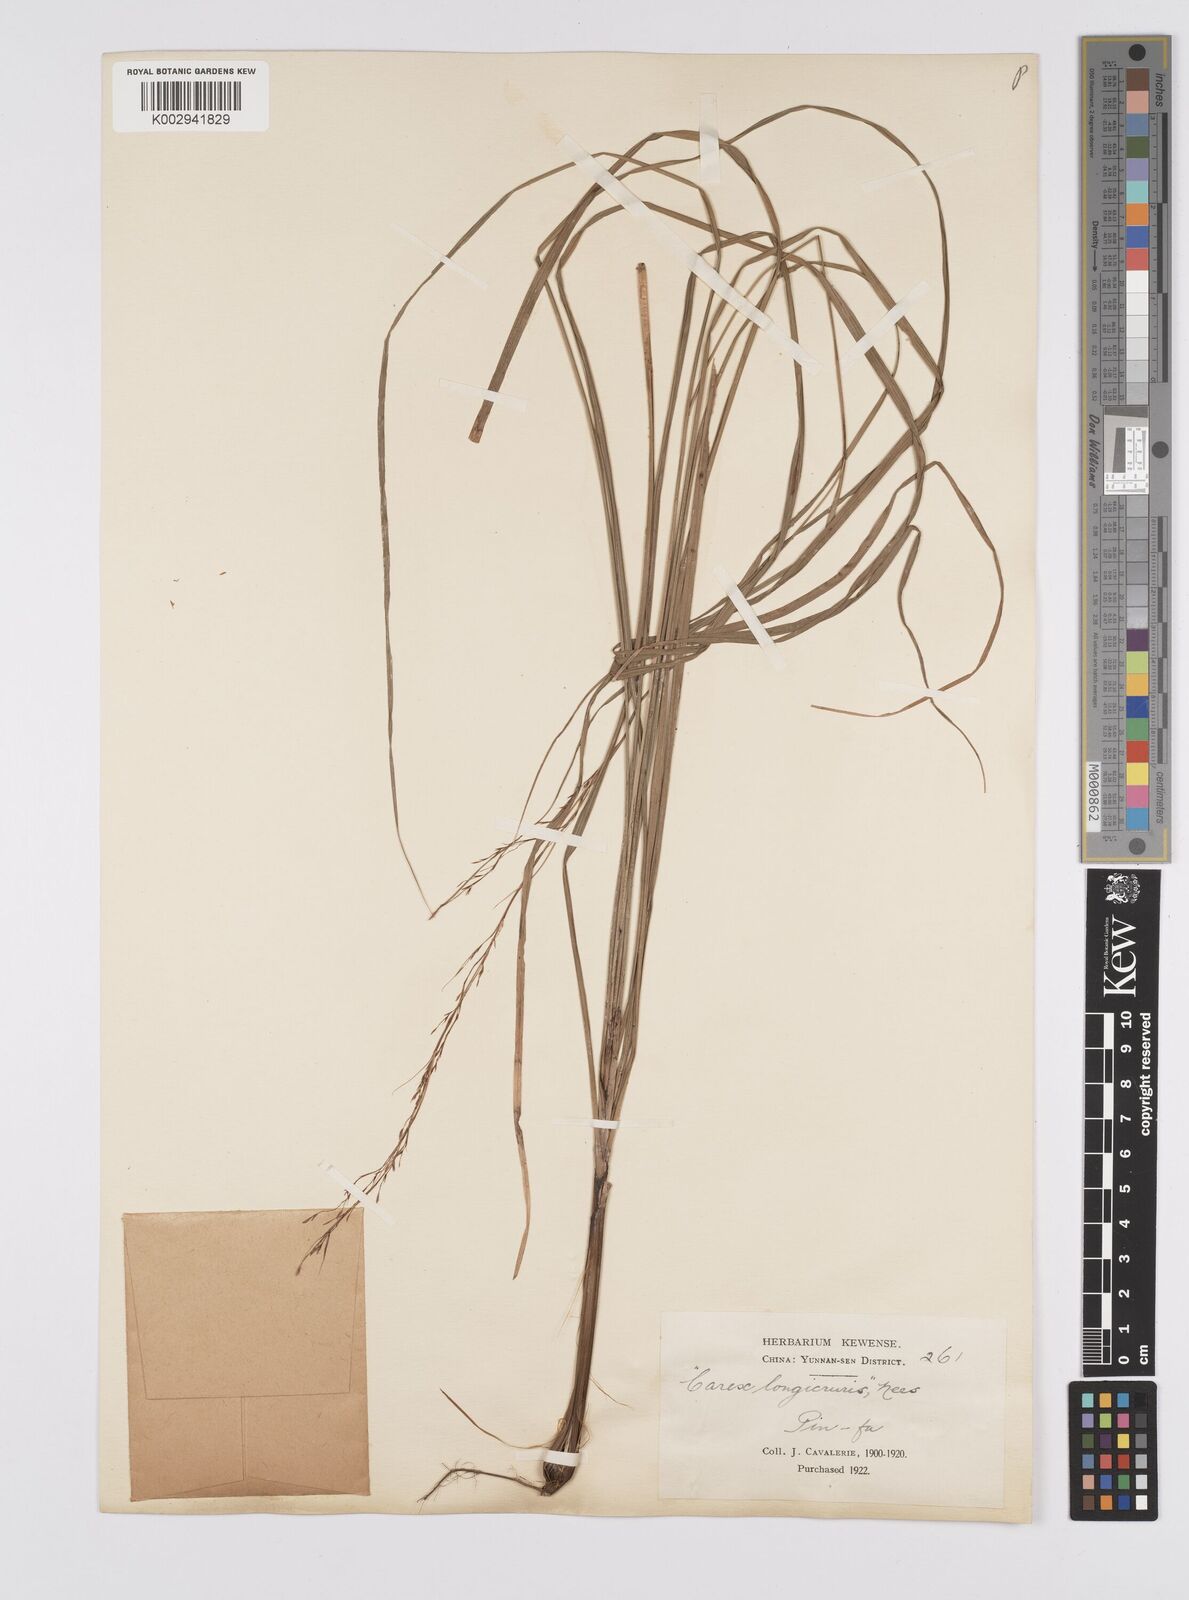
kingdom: Plantae
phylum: Tracheophyta
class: Liliopsida
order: Poales
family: Cyperaceae
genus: Carex
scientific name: Carex longicruris
